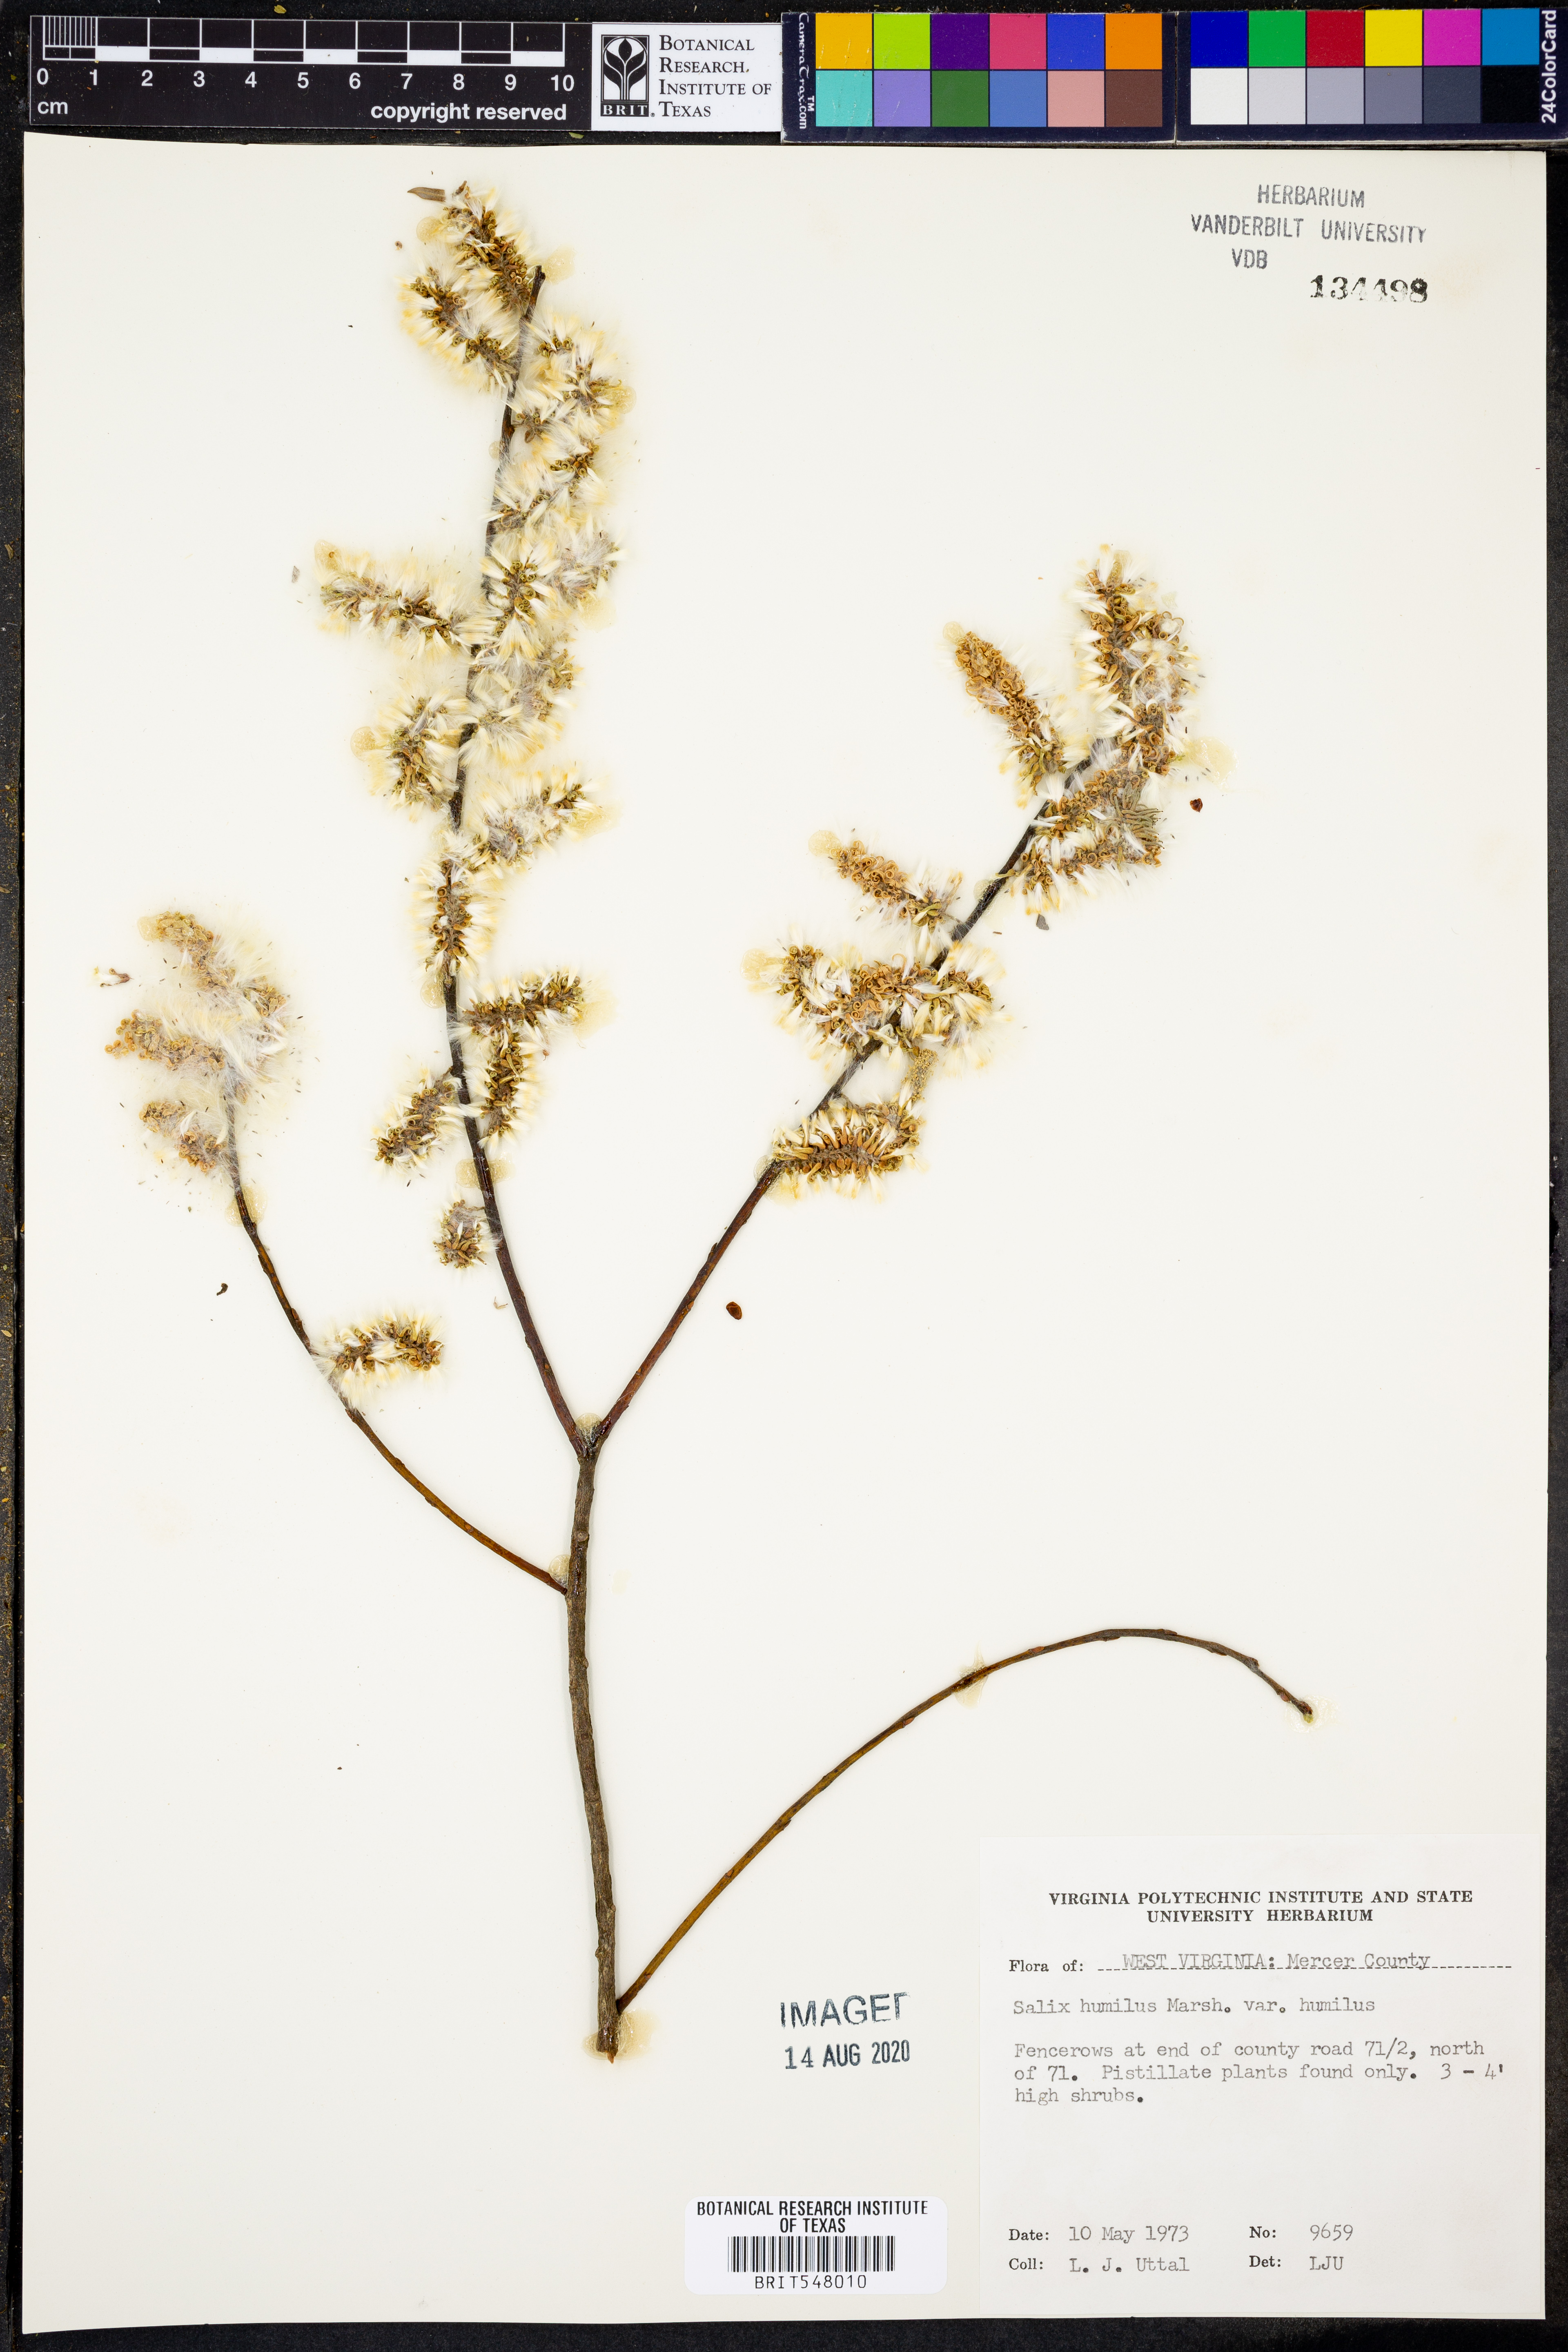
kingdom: Plantae
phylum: Tracheophyta
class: Magnoliopsida
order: Malpighiales
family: Salicaceae
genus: Salix
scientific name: Salix humilis
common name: Prairie willow
